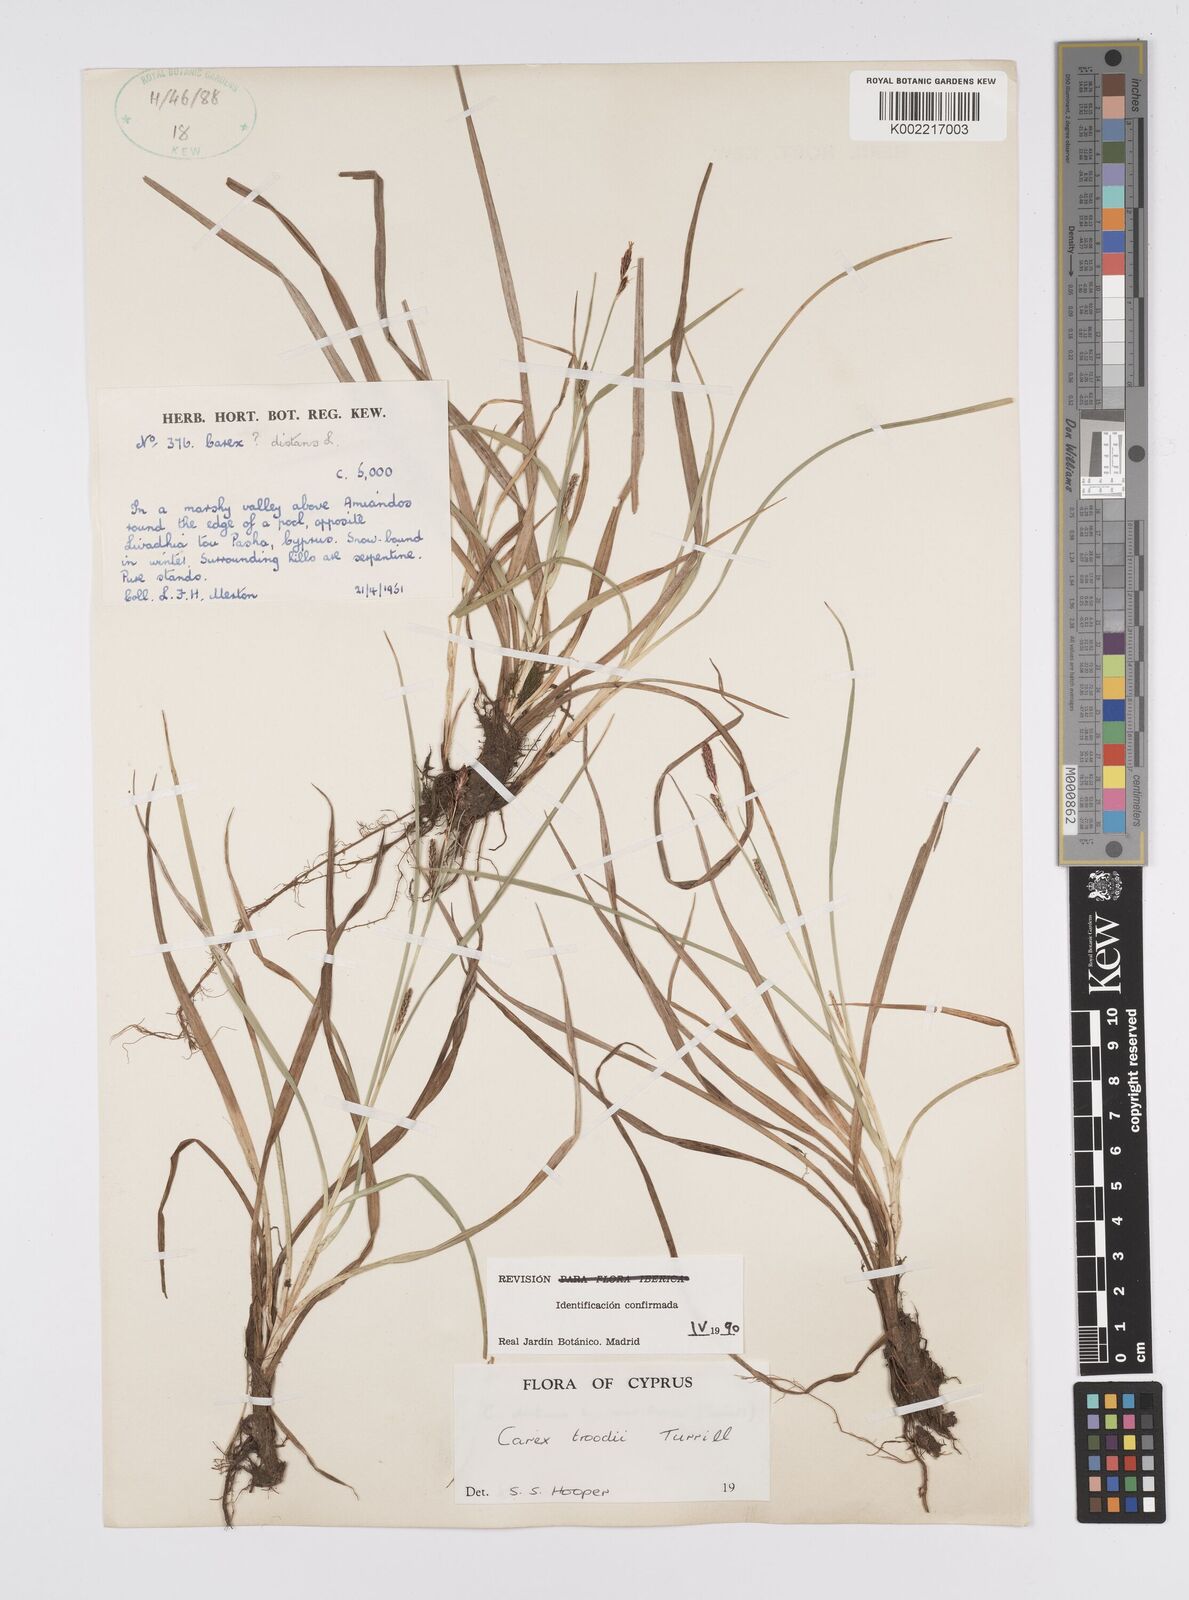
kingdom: Plantae
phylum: Tracheophyta
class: Liliopsida
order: Poales
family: Cyperaceae
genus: Carex
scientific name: Carex troodi
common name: Troodos mount sedge
